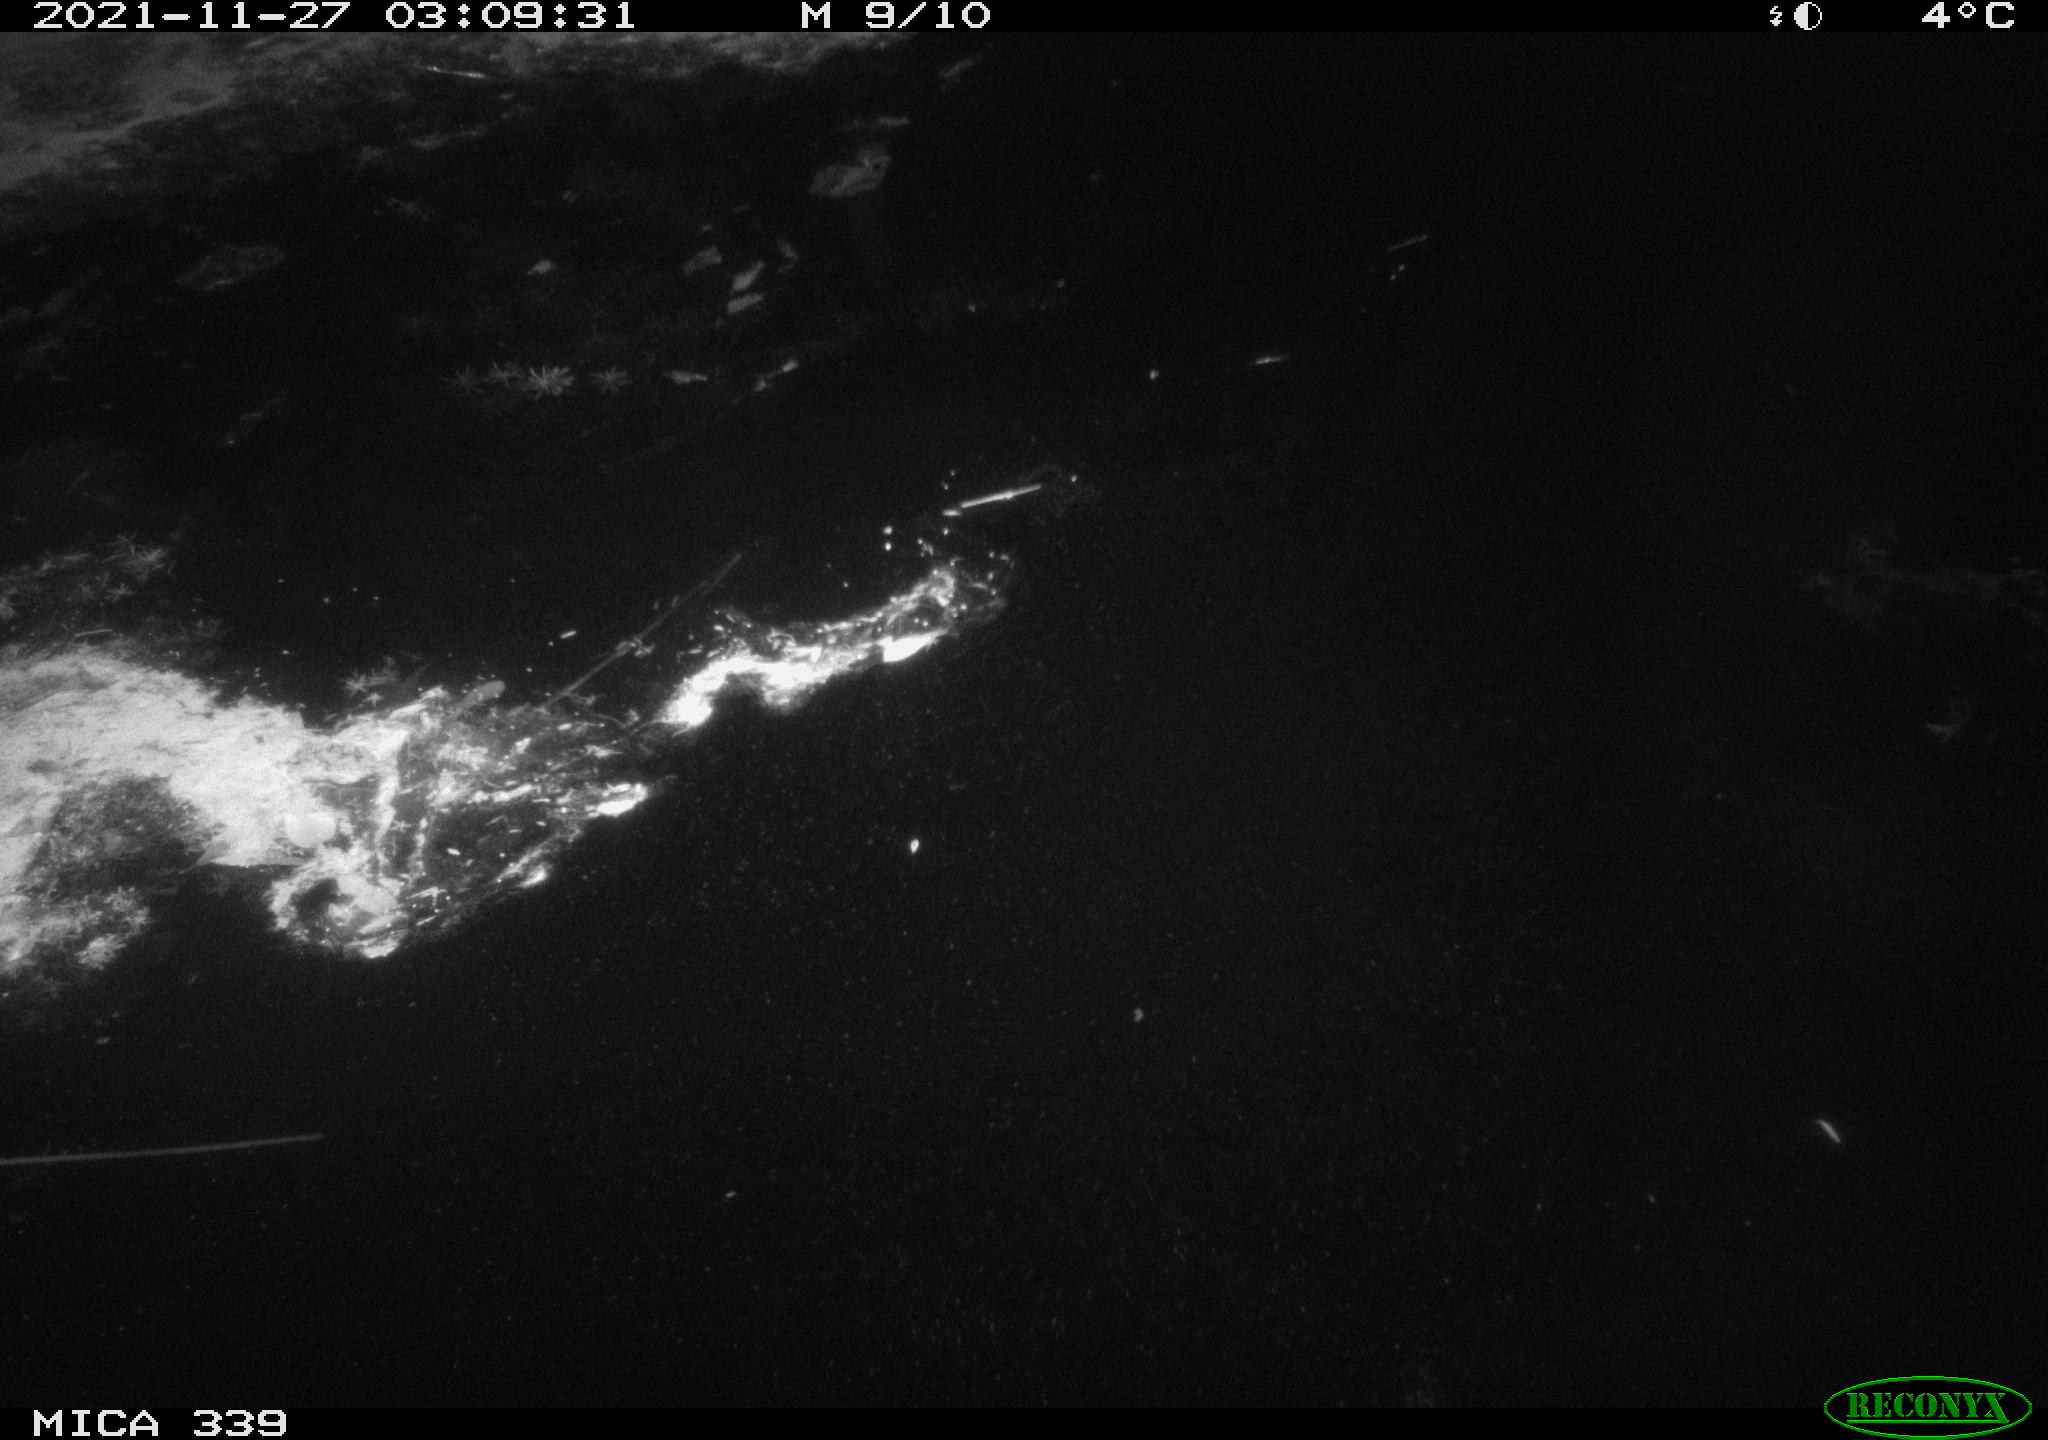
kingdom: Animalia
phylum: Chordata
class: Mammalia
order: Carnivora
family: Mustelidae
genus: Lutra
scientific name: Lutra lutra
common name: European otter
